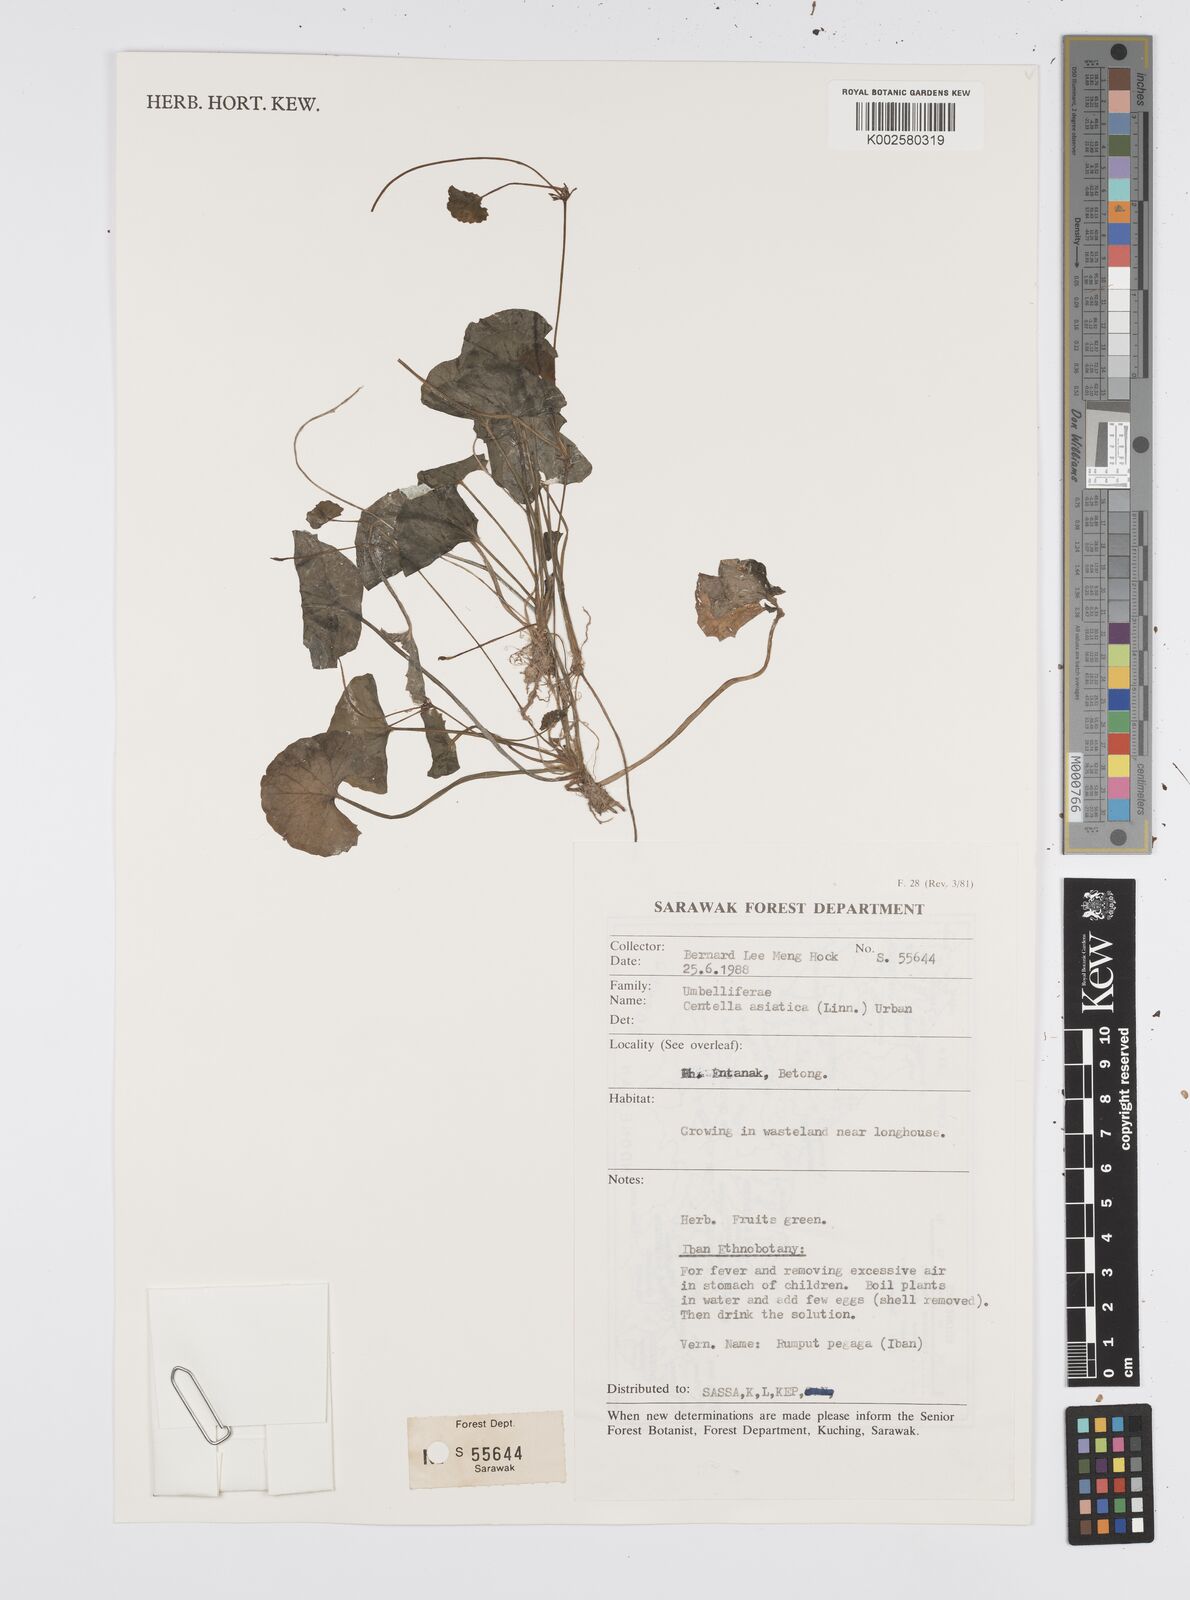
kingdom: Plantae
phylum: Tracheophyta
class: Magnoliopsida
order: Apiales
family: Apiaceae
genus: Centella
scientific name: Centella asiatica
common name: Spadeleaf
